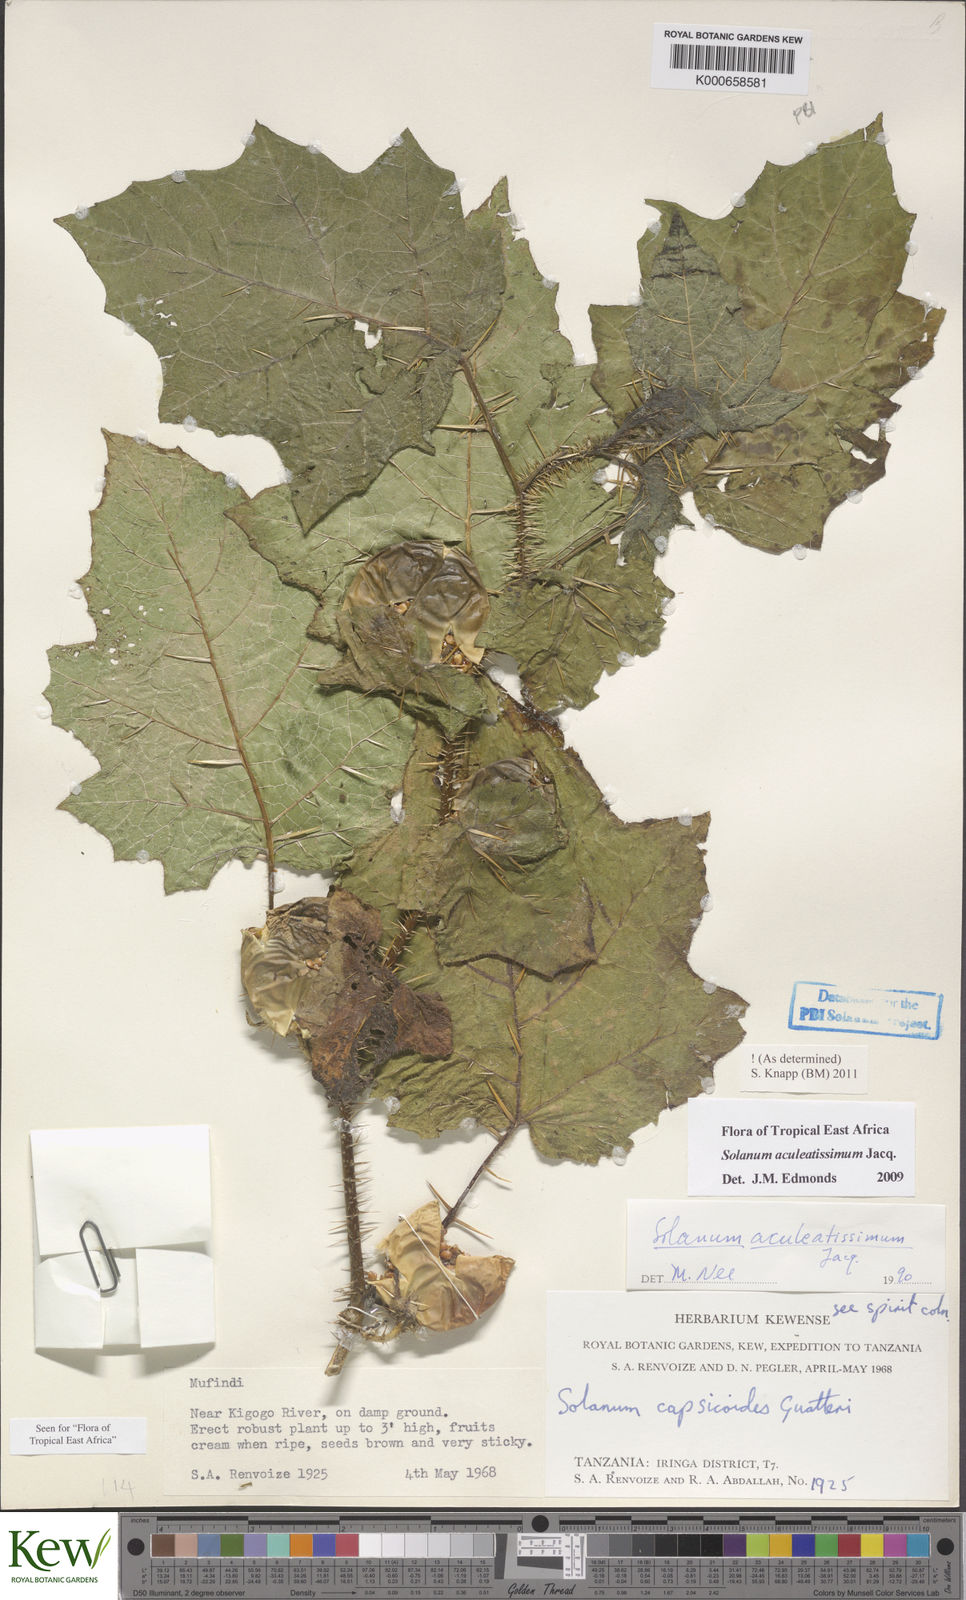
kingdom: Plantae
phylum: Tracheophyta
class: Magnoliopsida
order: Solanales
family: Solanaceae
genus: Solanum
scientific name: Solanum aculeatissimum
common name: Dutch eggplant
